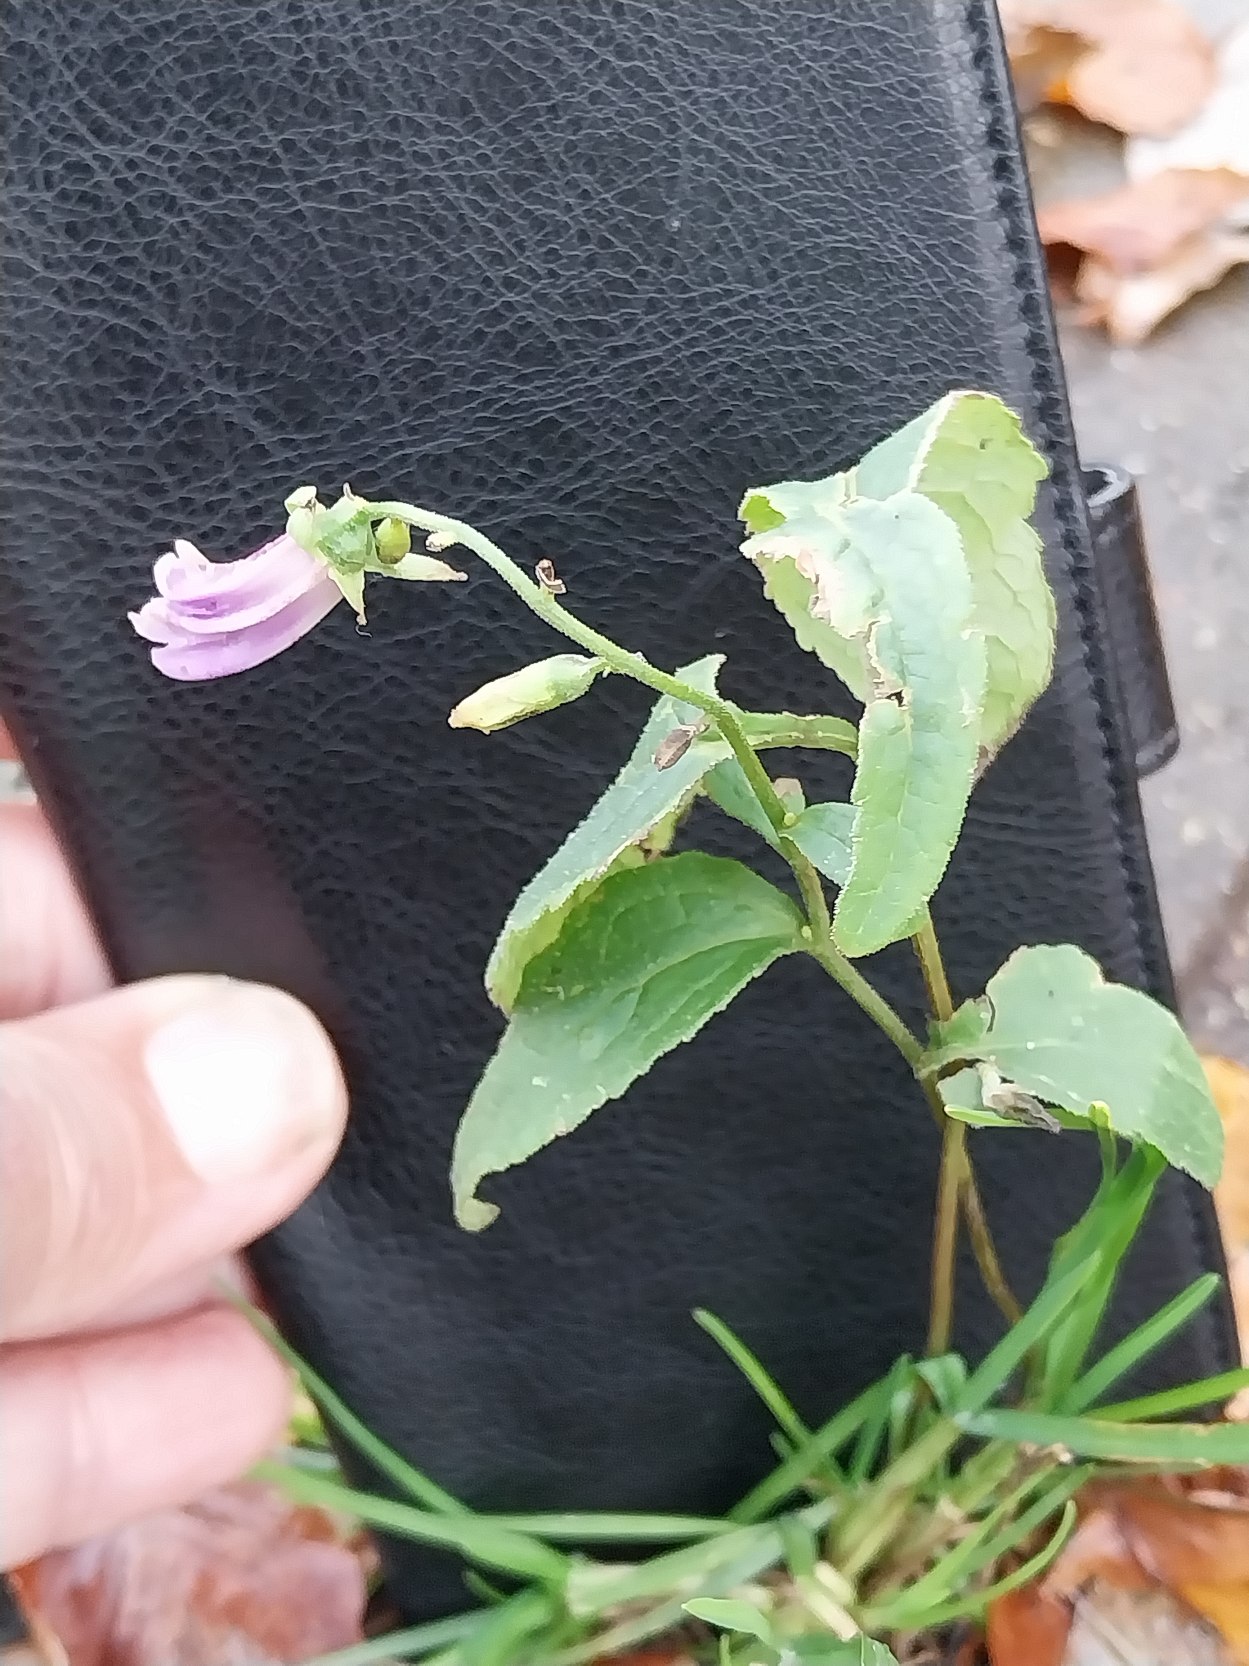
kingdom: Plantae
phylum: Tracheophyta
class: Magnoliopsida
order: Asterales
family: Campanulaceae
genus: Campanula
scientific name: Campanula rapunculoides
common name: Ensidig klokke
